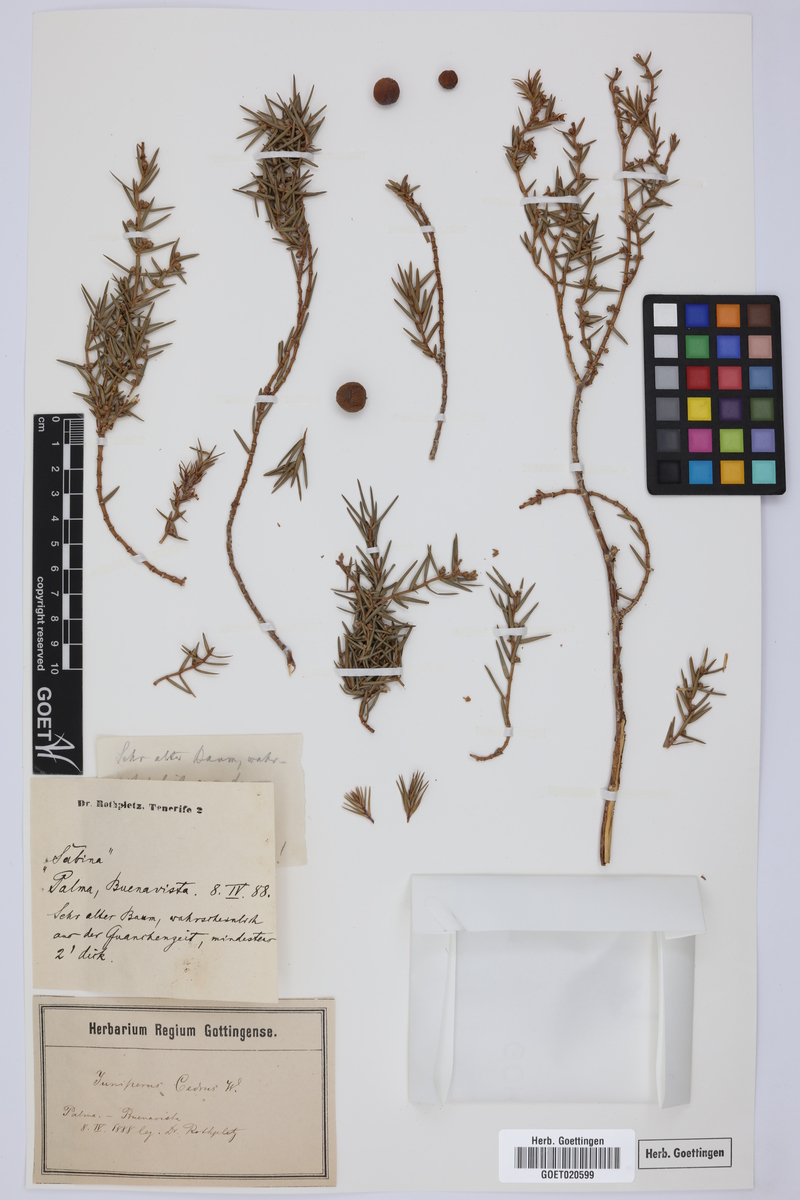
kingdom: Plantae
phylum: Tracheophyta
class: Pinopsida
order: Pinales
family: Cupressaceae
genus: Juniperus
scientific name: Juniperus cedrus
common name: Canary islands juniper
